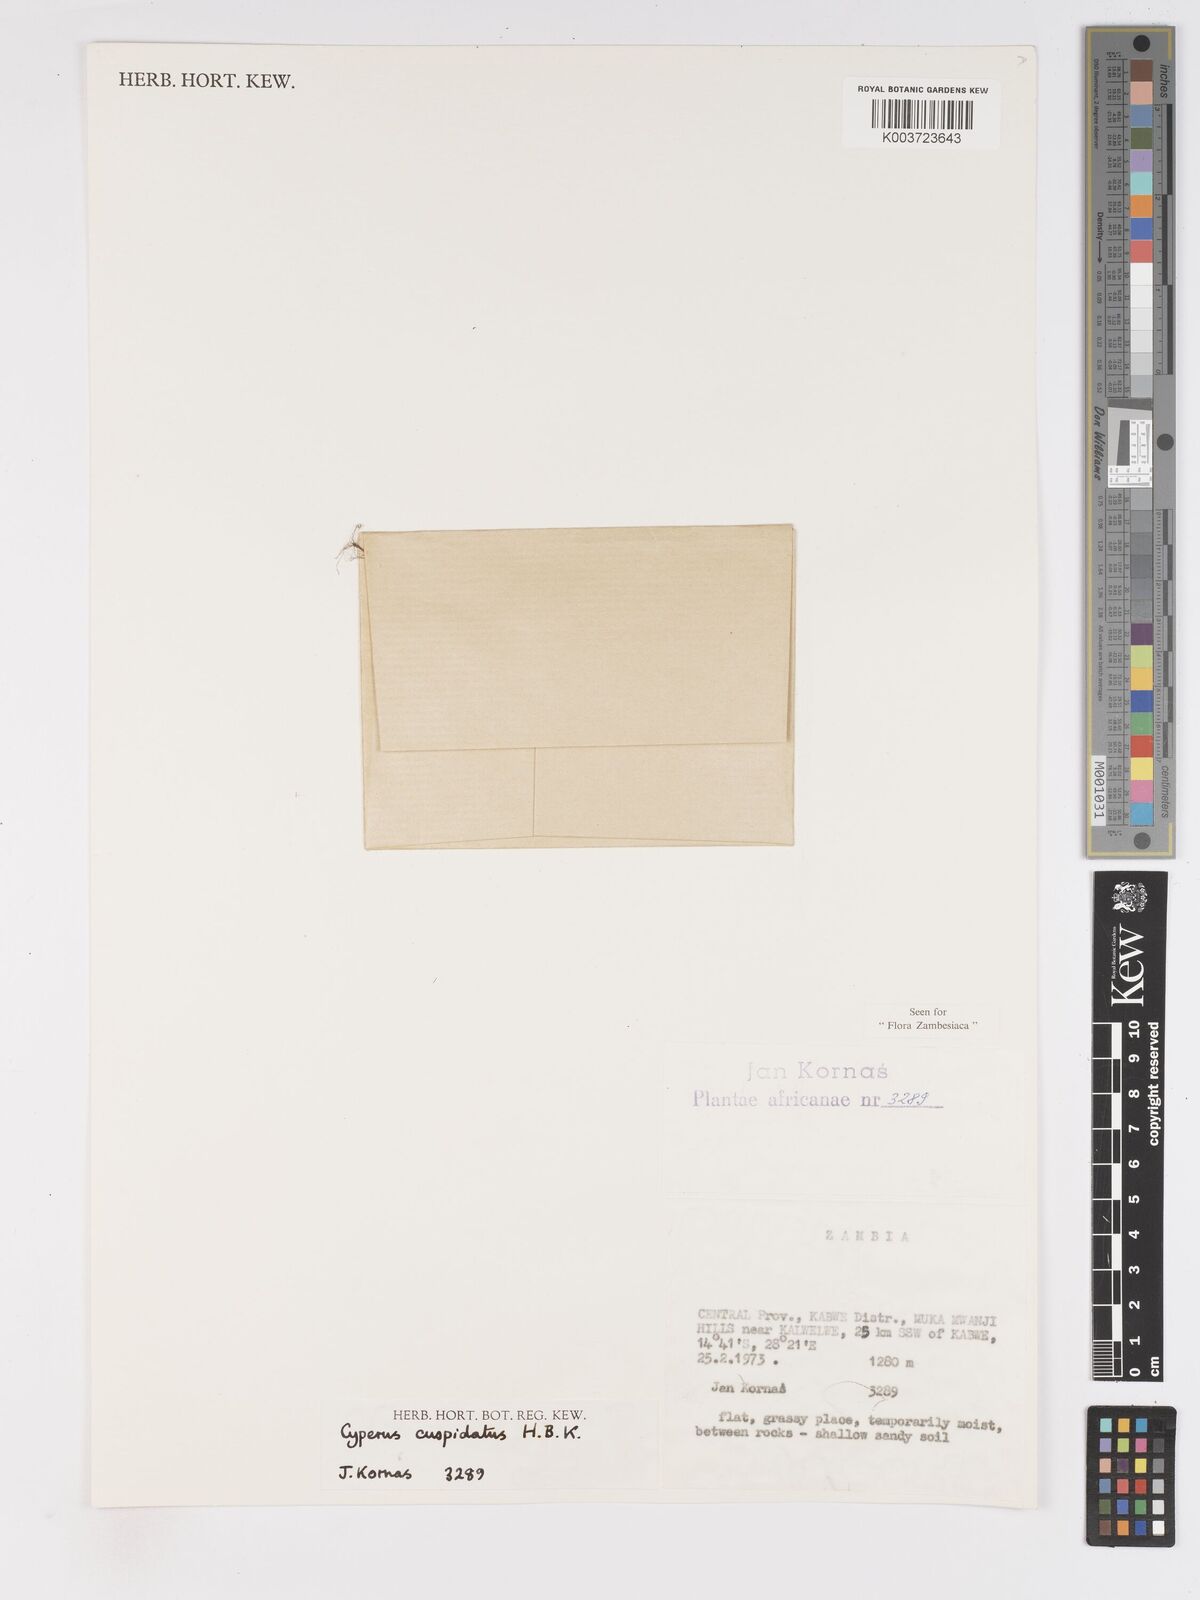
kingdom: Plantae
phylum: Tracheophyta
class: Liliopsida
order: Poales
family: Cyperaceae
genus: Cyperus
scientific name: Cyperus betafensis
